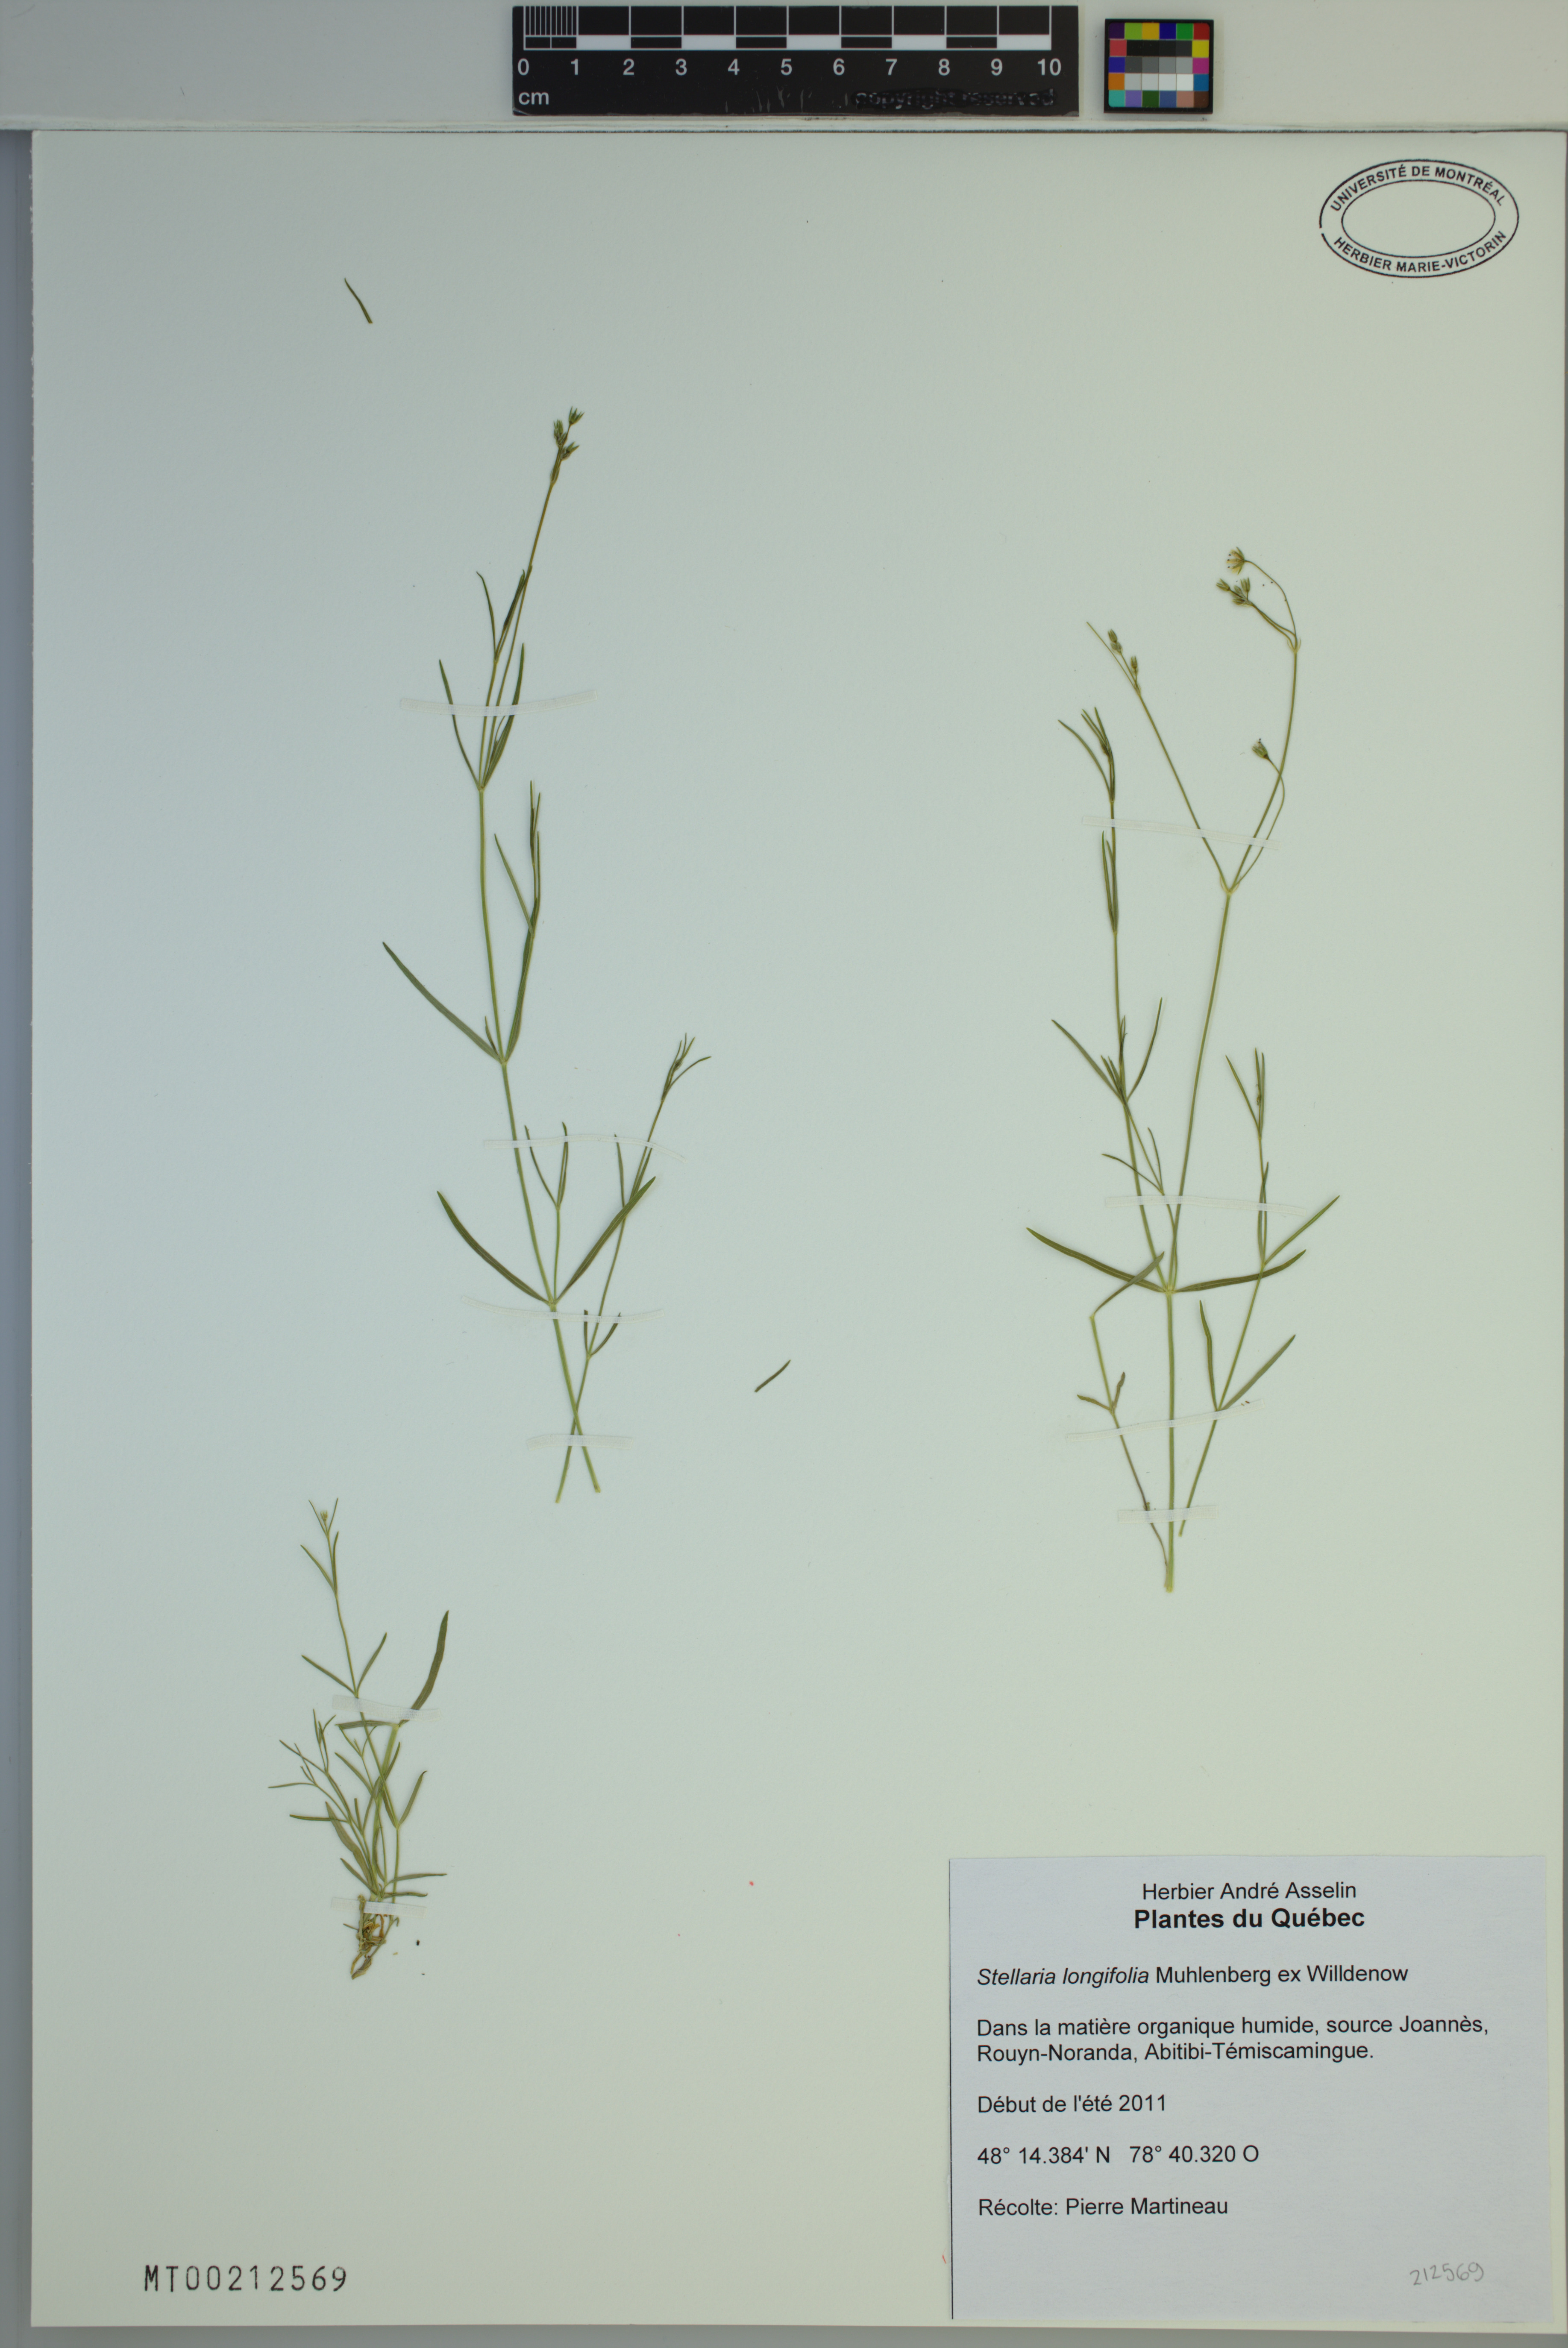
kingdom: Plantae
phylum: Tracheophyta
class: Magnoliopsida
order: Caryophyllales
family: Caryophyllaceae
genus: Stellaria
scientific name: Stellaria longifolia
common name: Long-leaved chickweed
